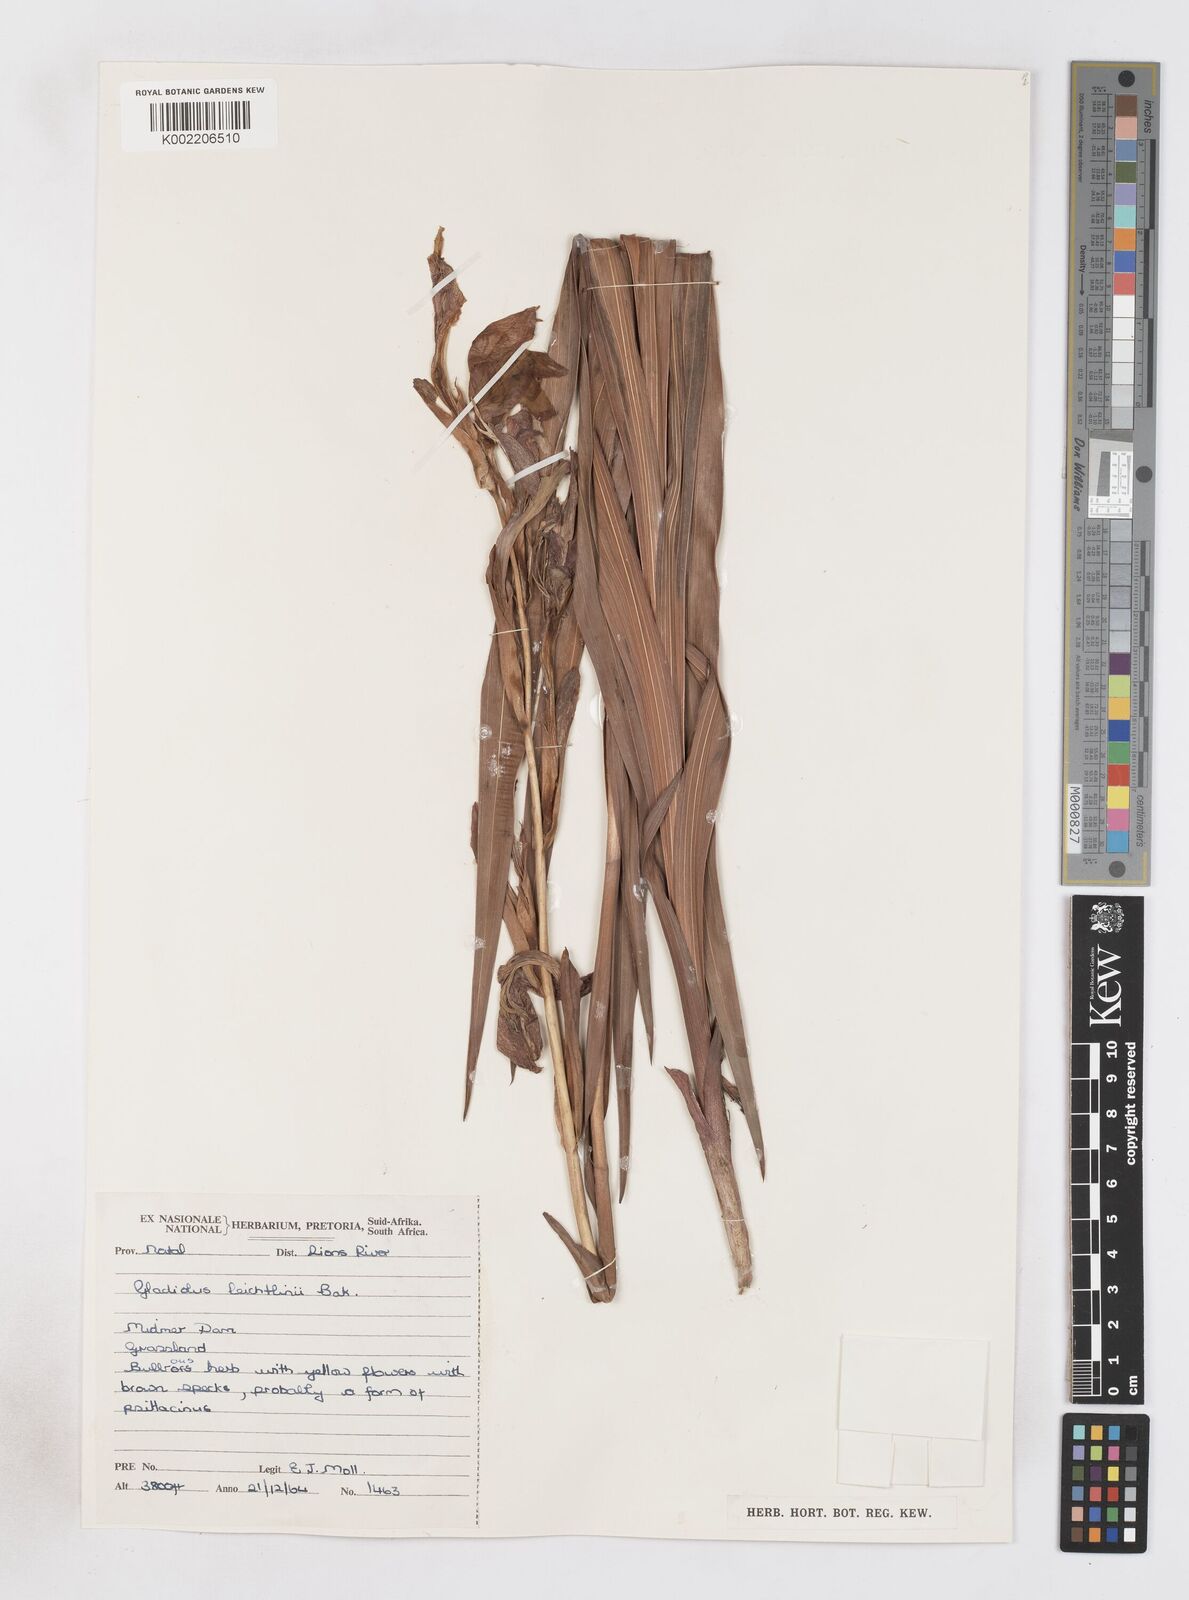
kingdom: Plantae
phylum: Tracheophyta
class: Liliopsida
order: Asparagales
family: Iridaceae
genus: Gladiolus
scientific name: Gladiolus dalenii
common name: Cornflag
